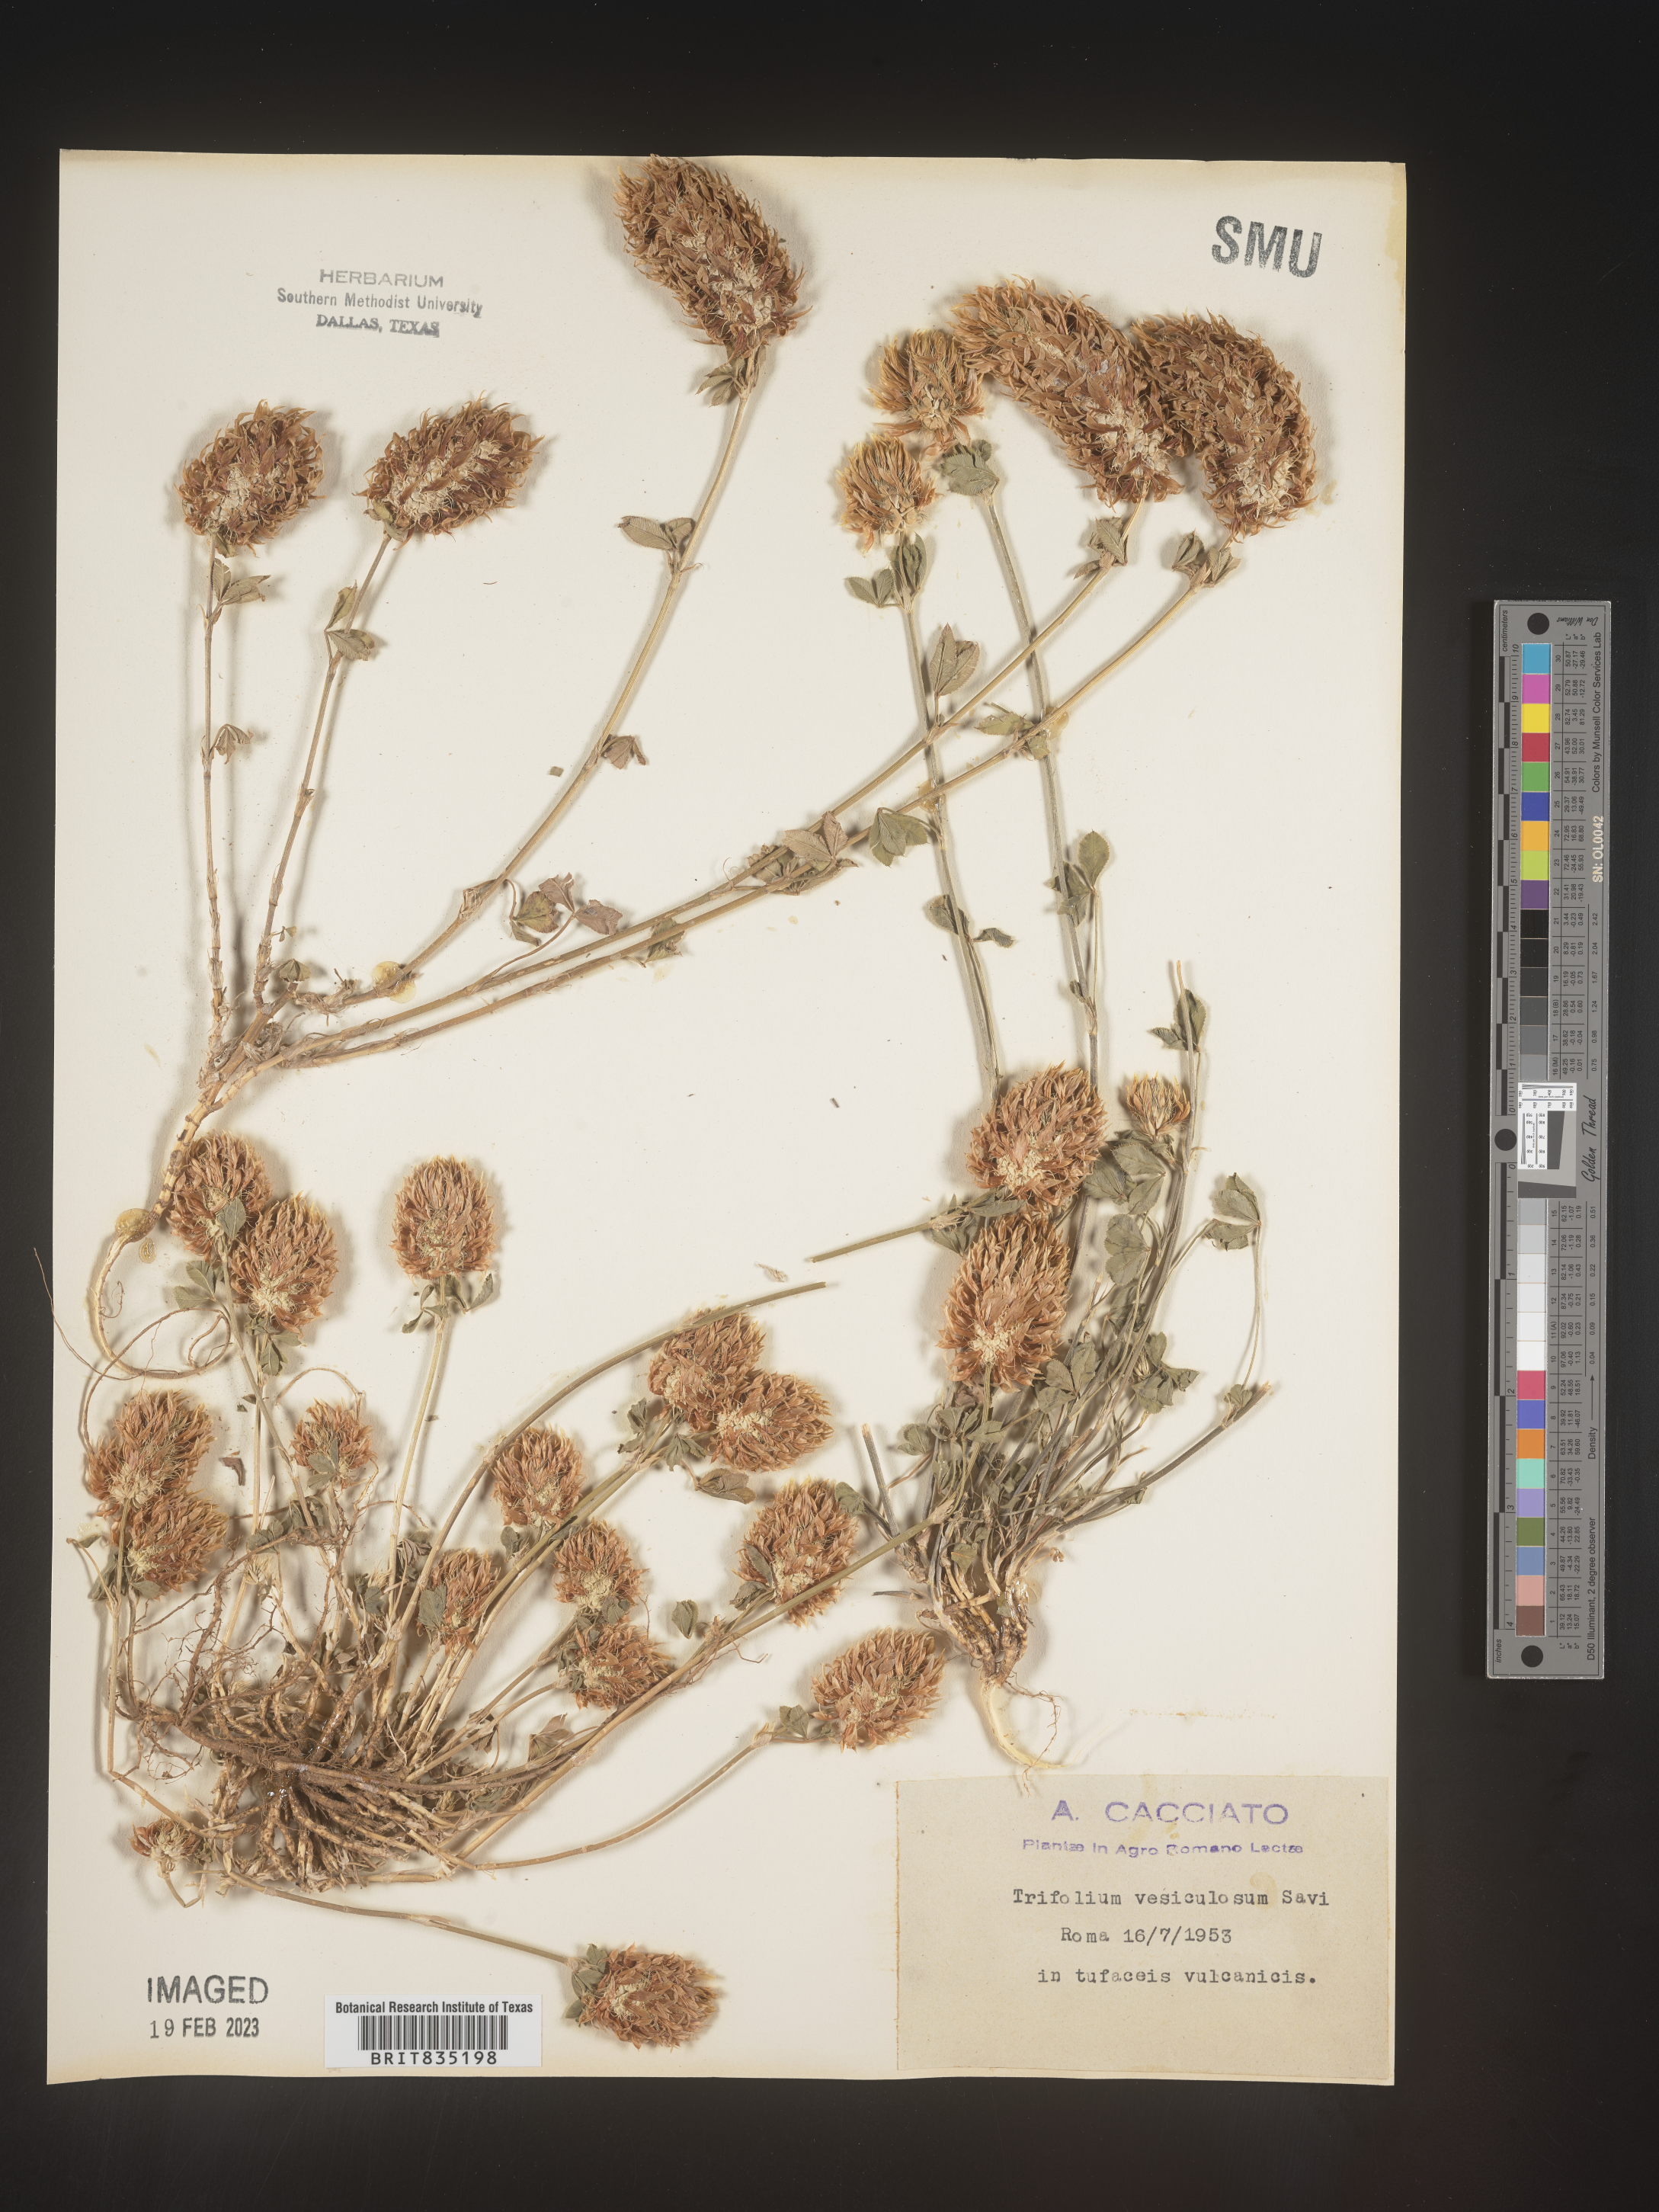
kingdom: Plantae
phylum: Tracheophyta
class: Magnoliopsida
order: Fabales
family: Fabaceae
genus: Trifolium
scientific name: Trifolium
